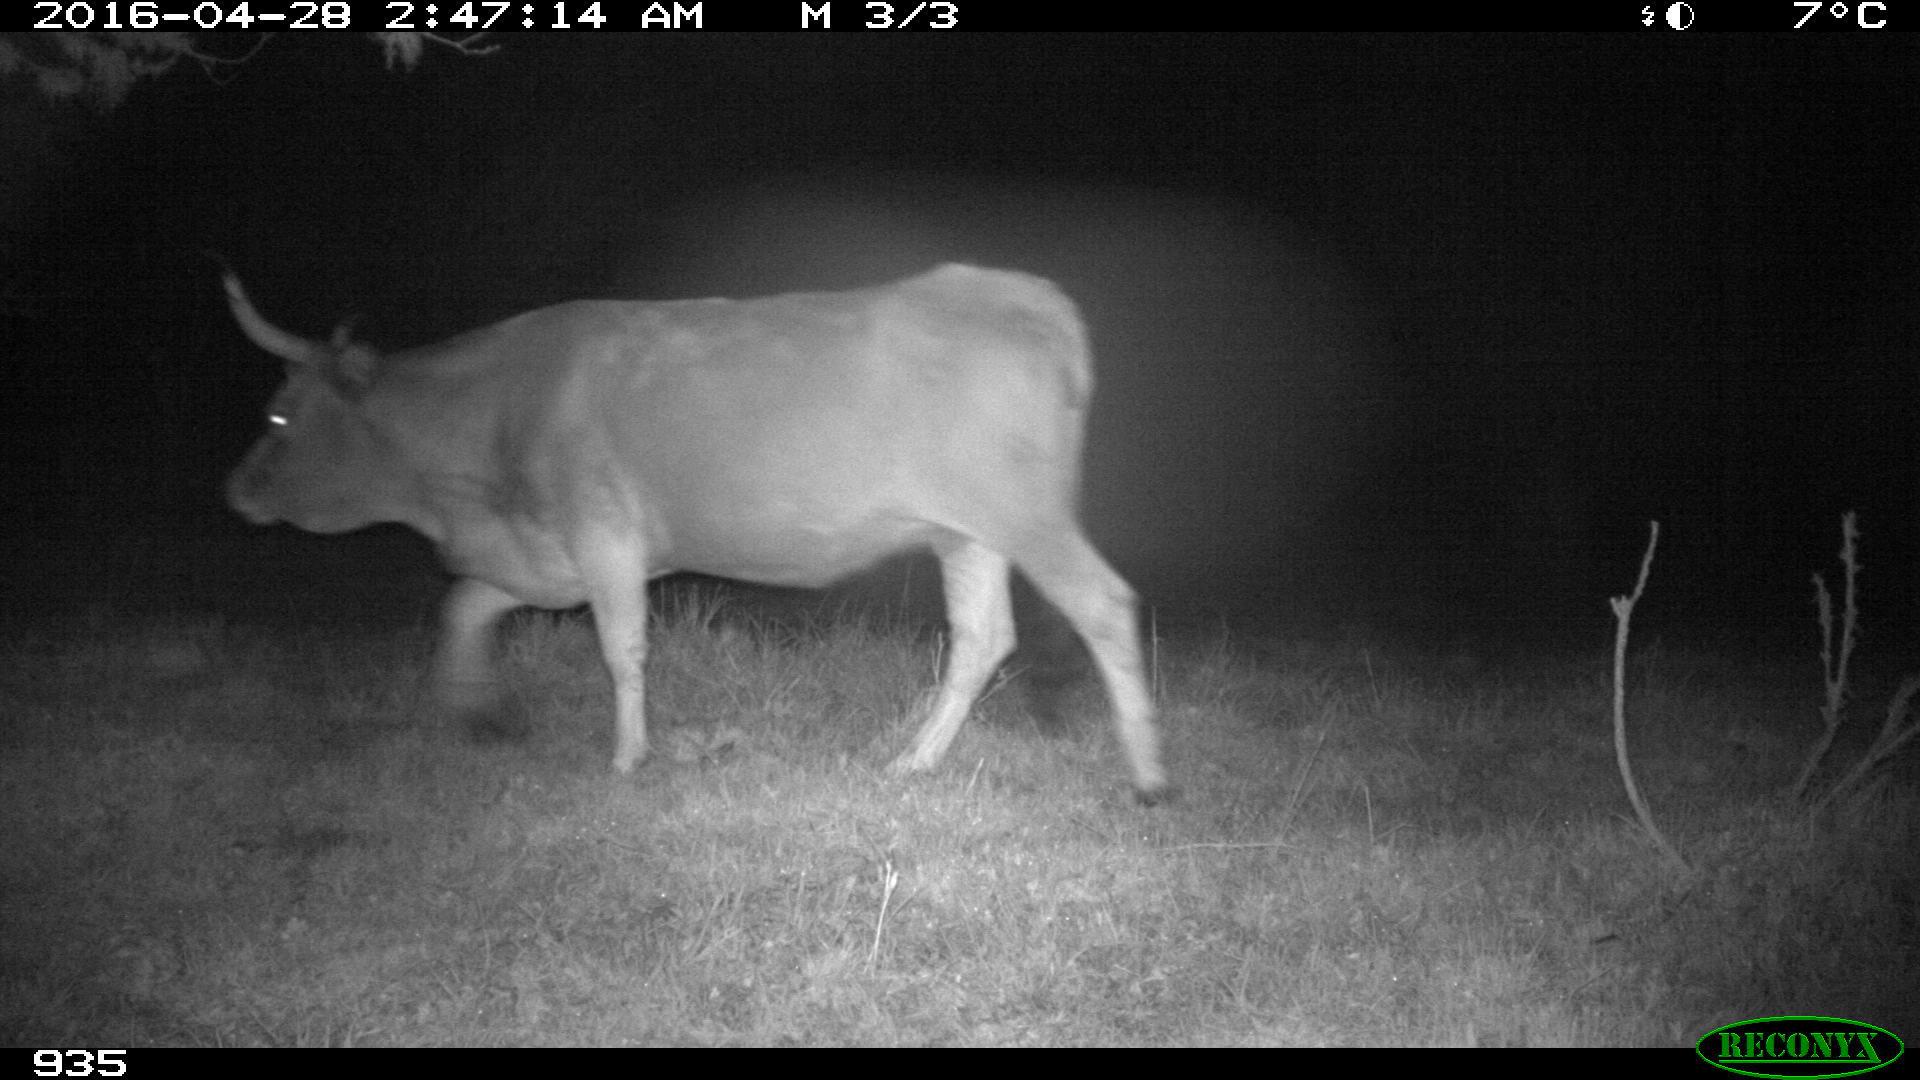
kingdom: Animalia
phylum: Chordata
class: Mammalia
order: Artiodactyla
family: Bovidae
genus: Bos
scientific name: Bos taurus
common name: Domesticated cattle
